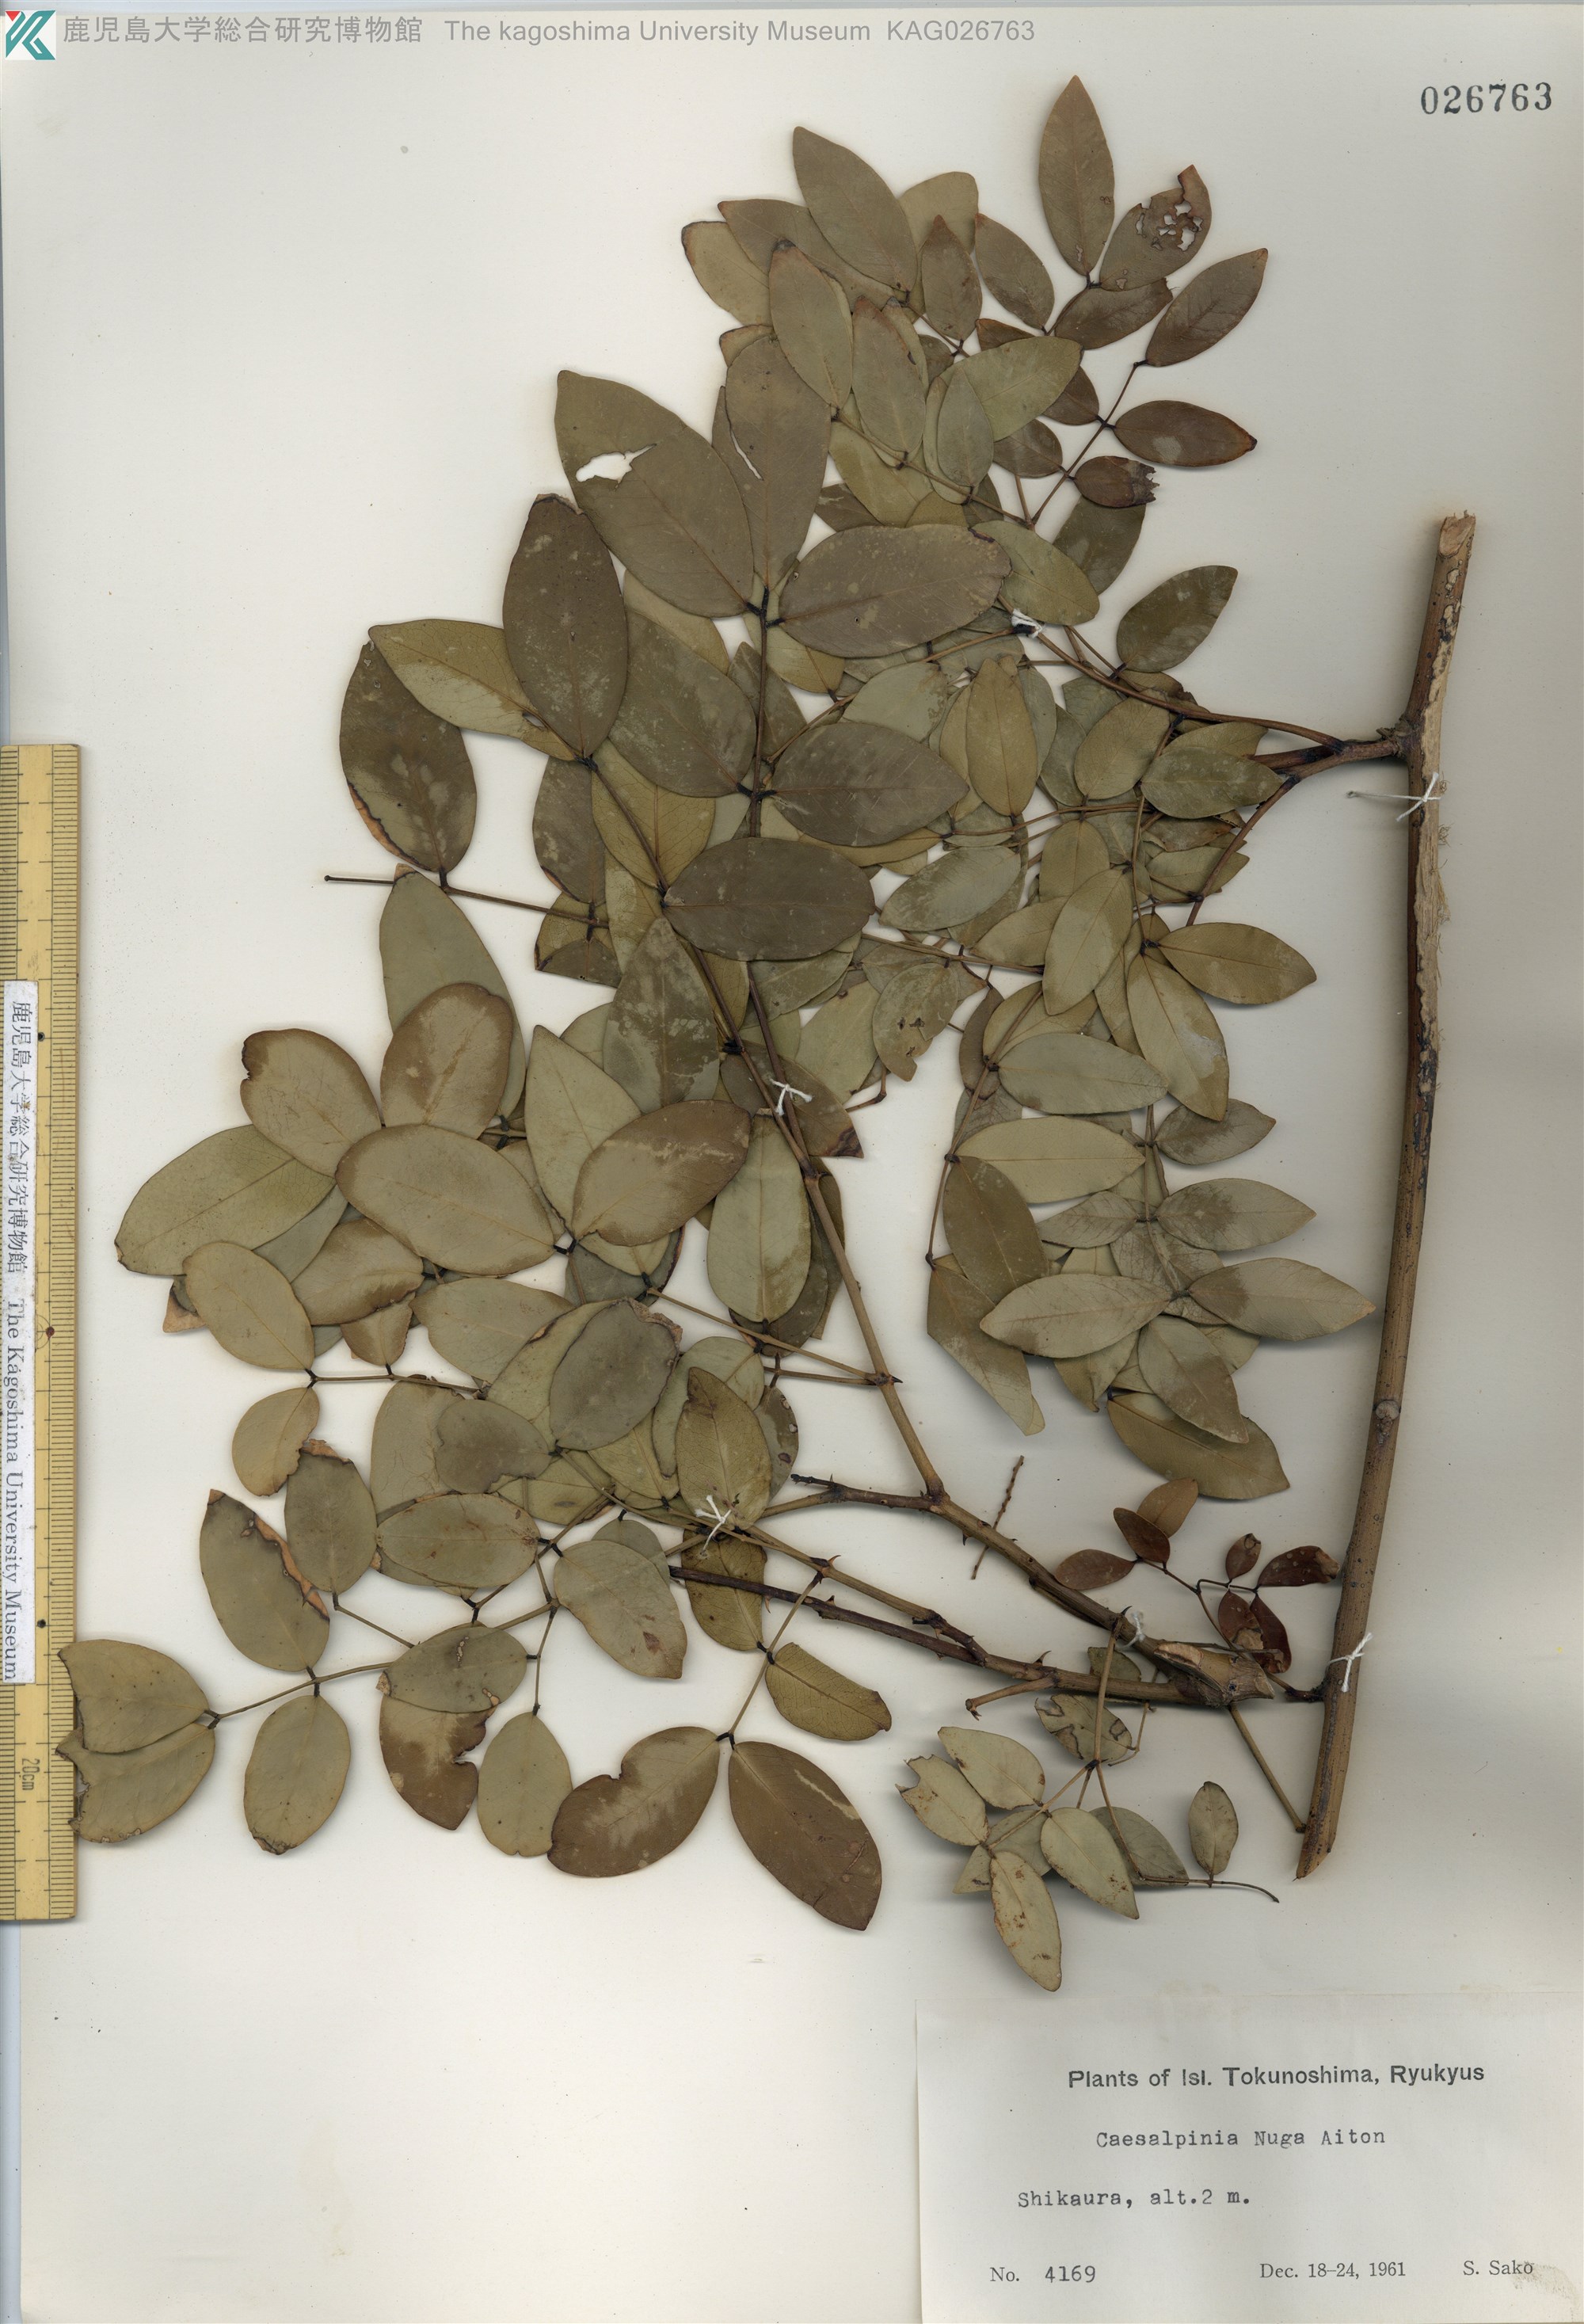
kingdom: Plantae
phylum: Tracheophyta
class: Magnoliopsida
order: Fabales
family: Fabaceae
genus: Caesalpinia
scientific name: Caesalpinia Ticanto crista
